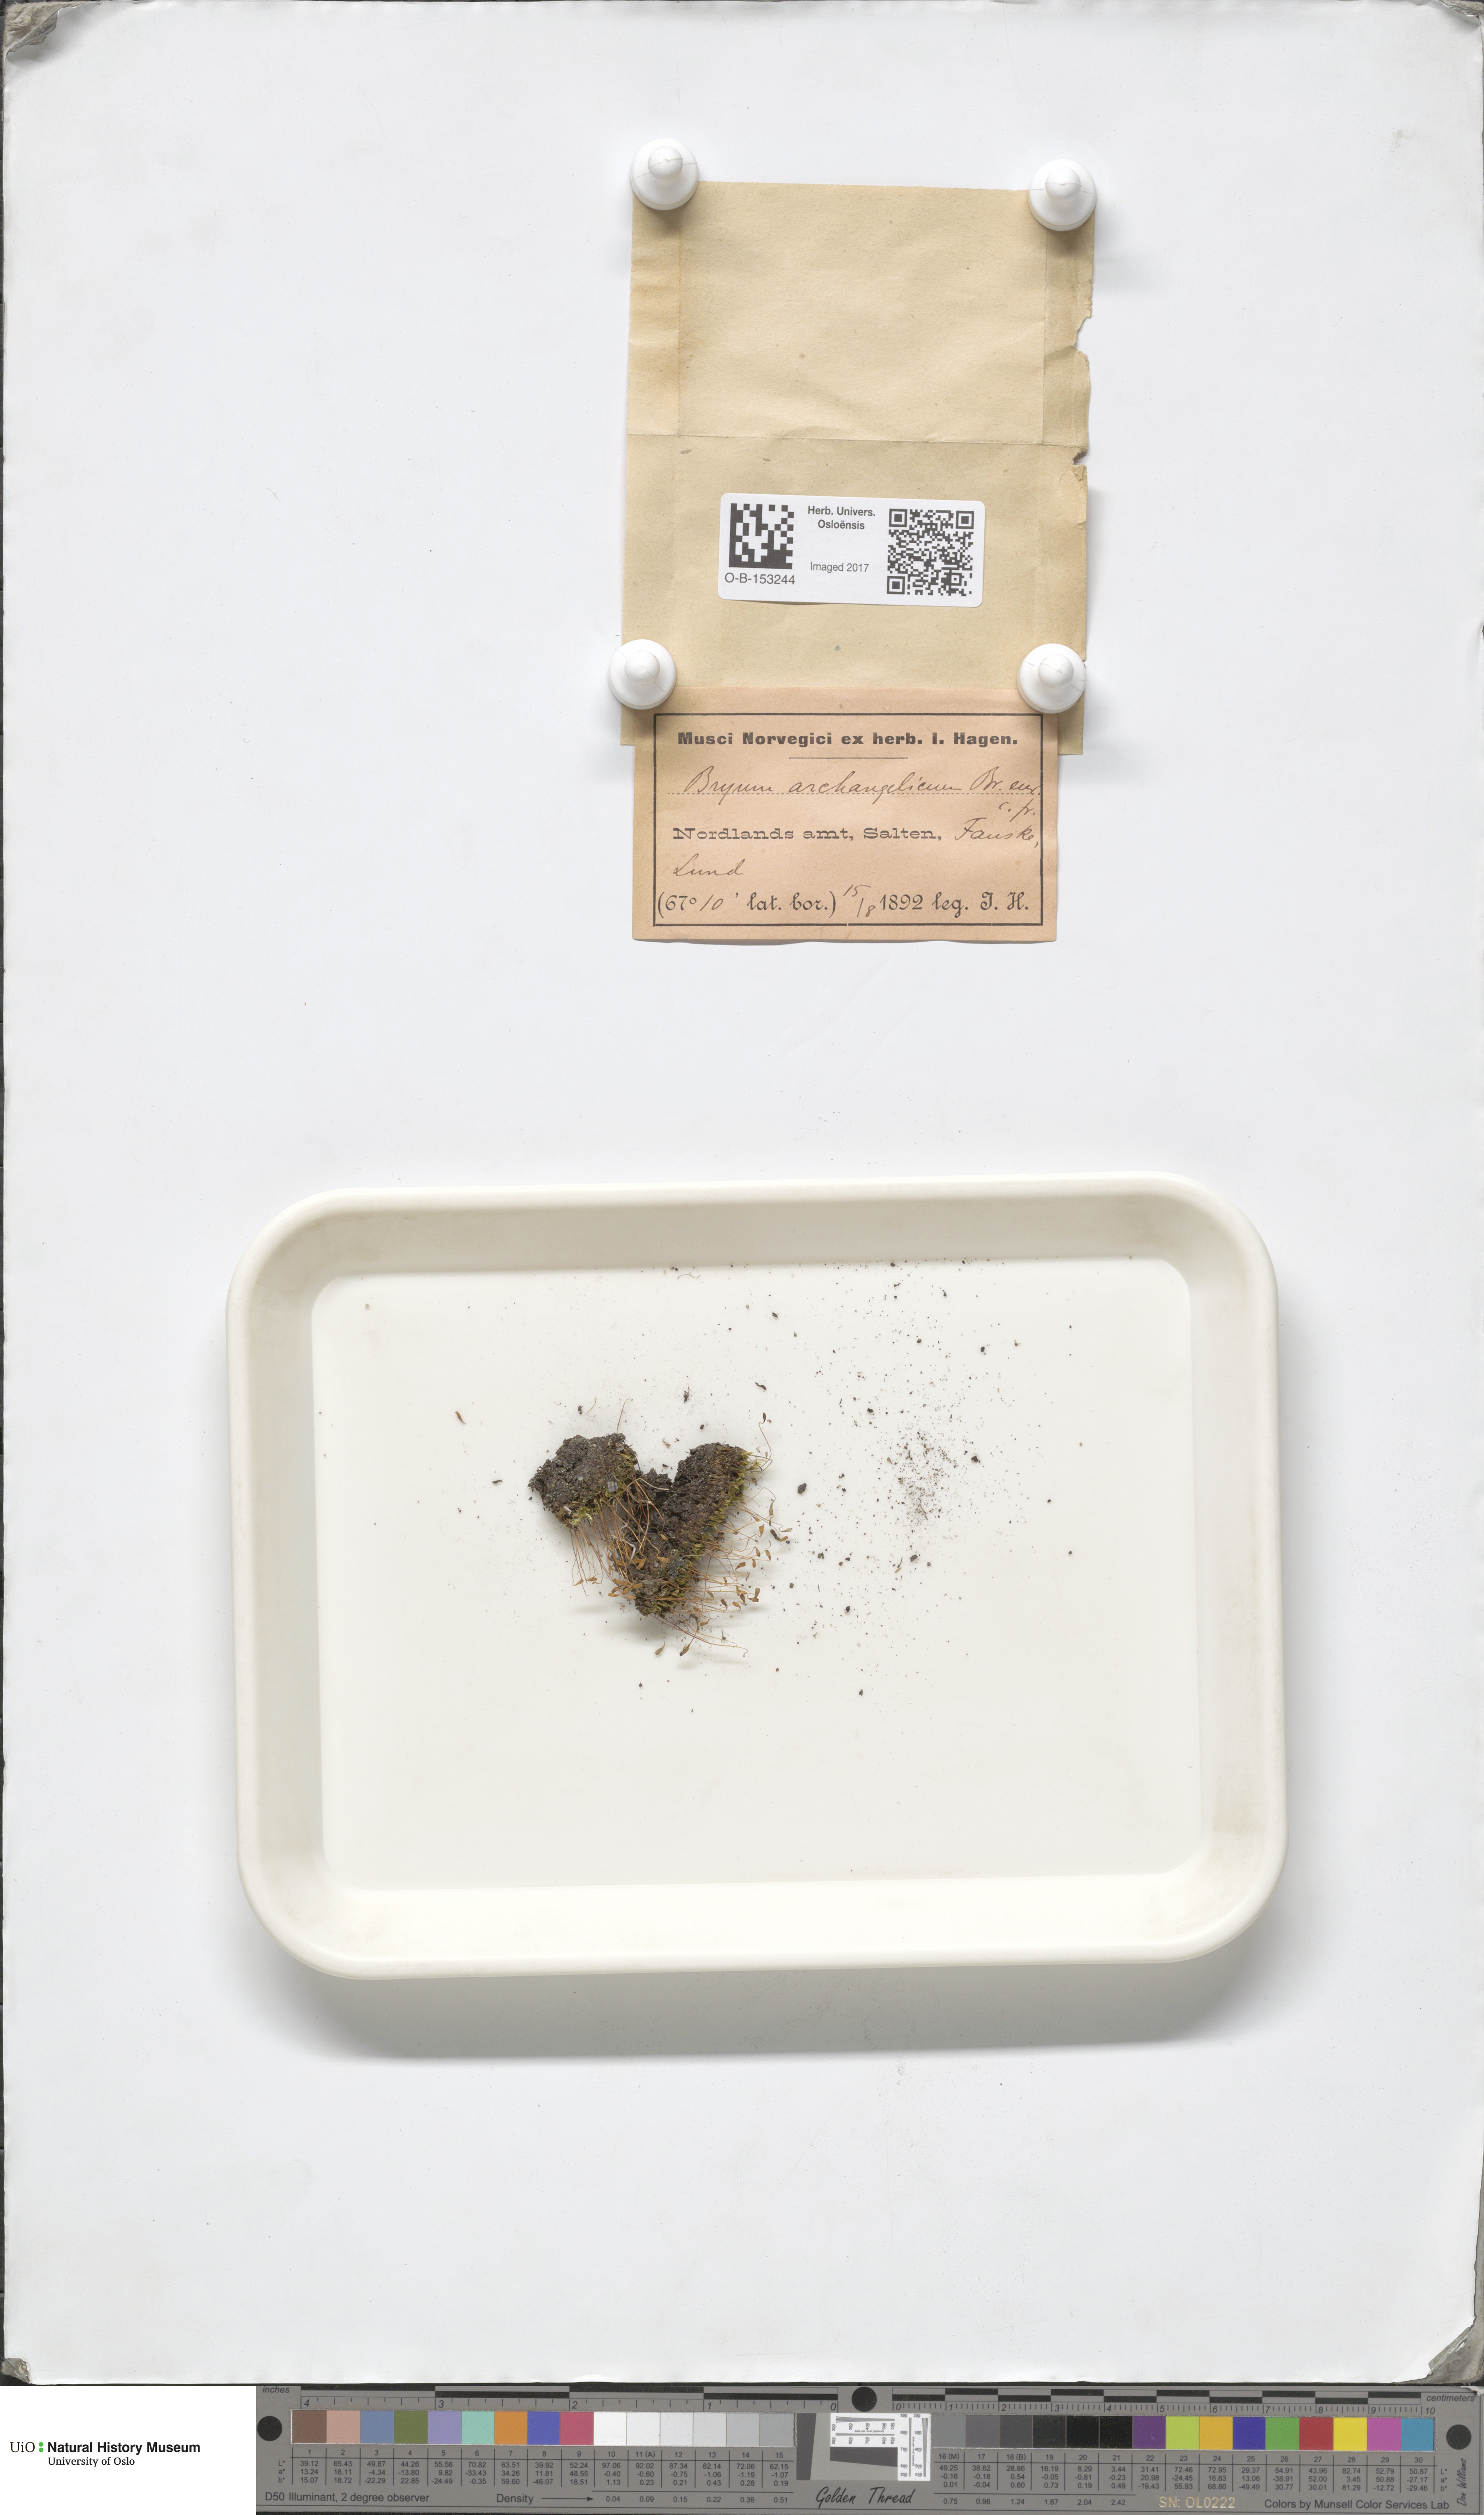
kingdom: Plantae
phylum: Bryophyta
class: Bryopsida
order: Bryales
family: Bryaceae
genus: Ptychostomum
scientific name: Ptychostomum inclinatum
